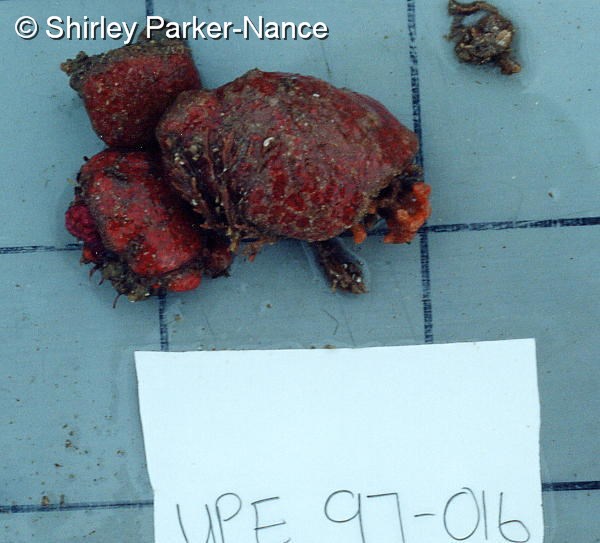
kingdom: Animalia
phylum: Chordata
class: Ascidiacea
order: Aplousobranchia
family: Polyclinidae
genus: Aplidium
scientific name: Aplidium mernooensis
